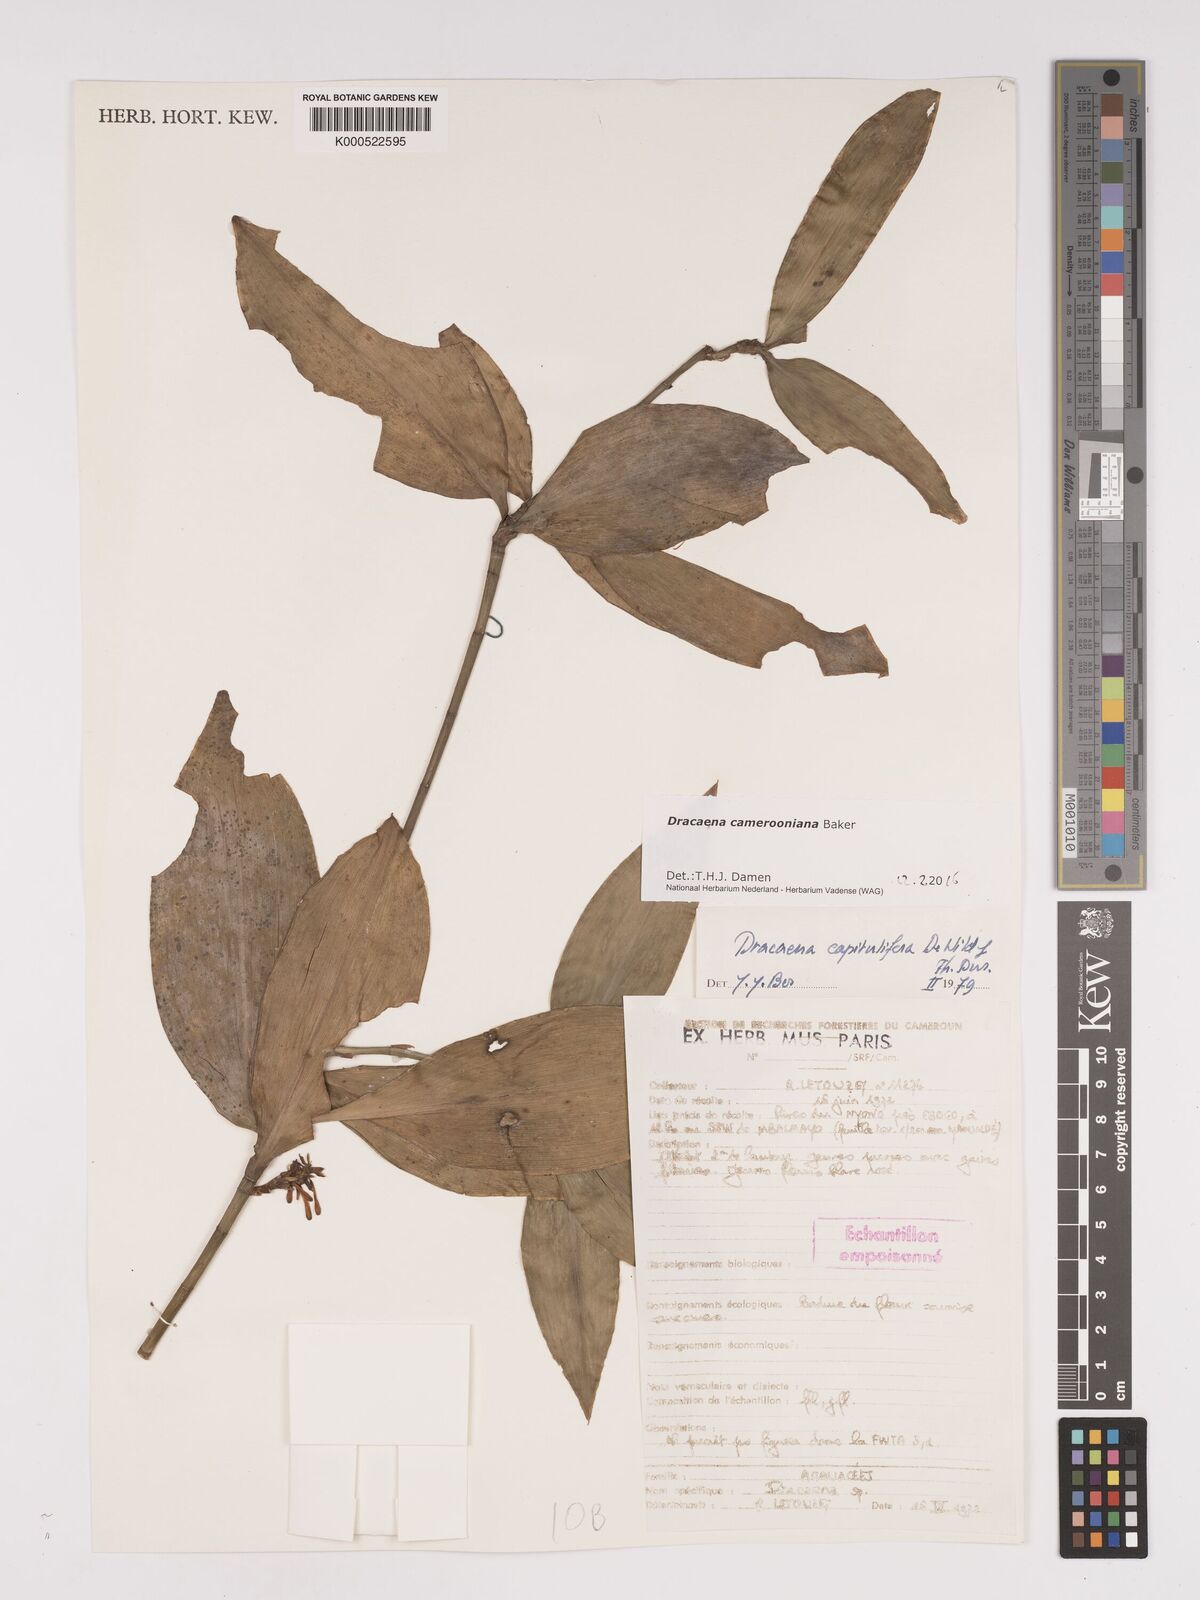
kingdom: Plantae
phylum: Tracheophyta
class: Liliopsida
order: Asparagales
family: Asparagaceae
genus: Dracaena
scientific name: Dracaena camerooniana
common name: Dragon tree
